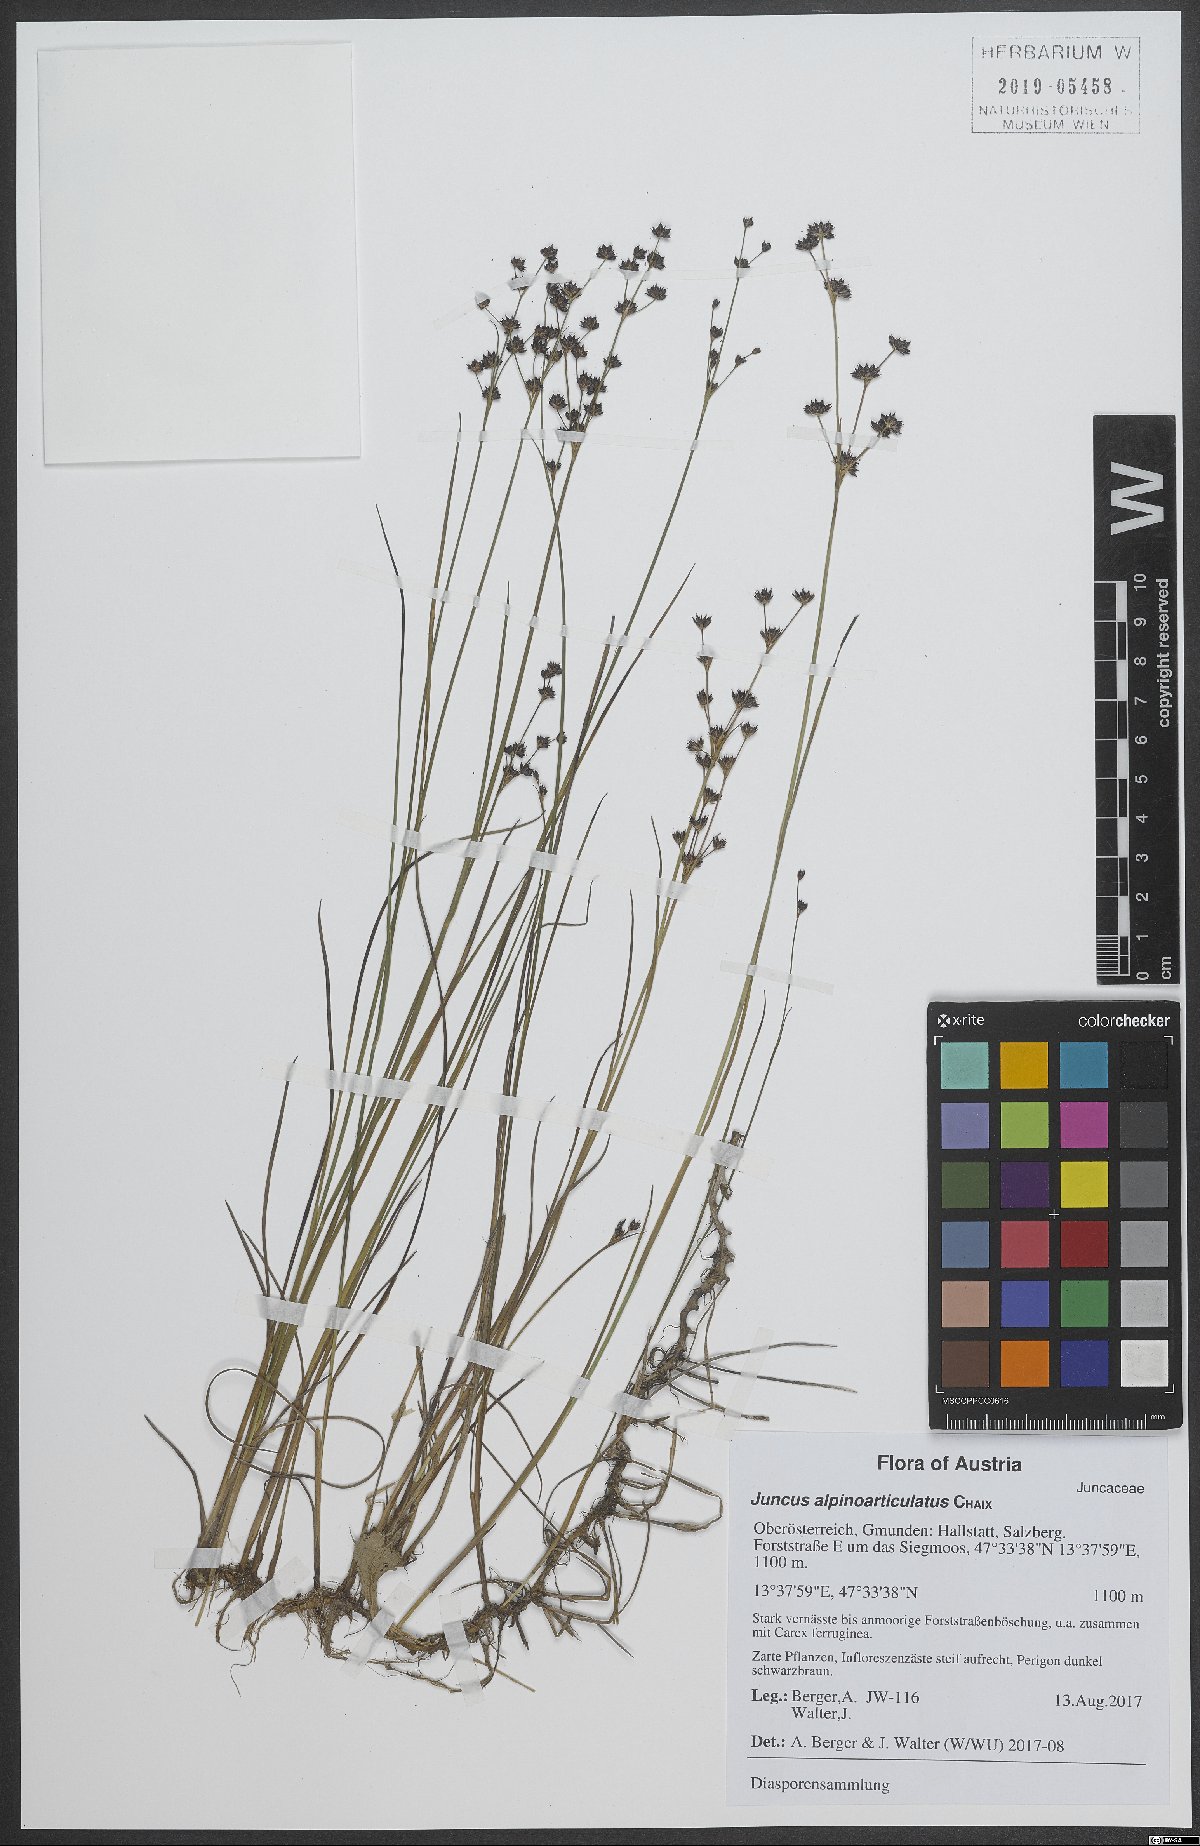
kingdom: Plantae
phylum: Tracheophyta
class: Liliopsida
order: Poales
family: Juncaceae
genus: Juncus
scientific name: Juncus alpinoarticulatus
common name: Alpine rush
